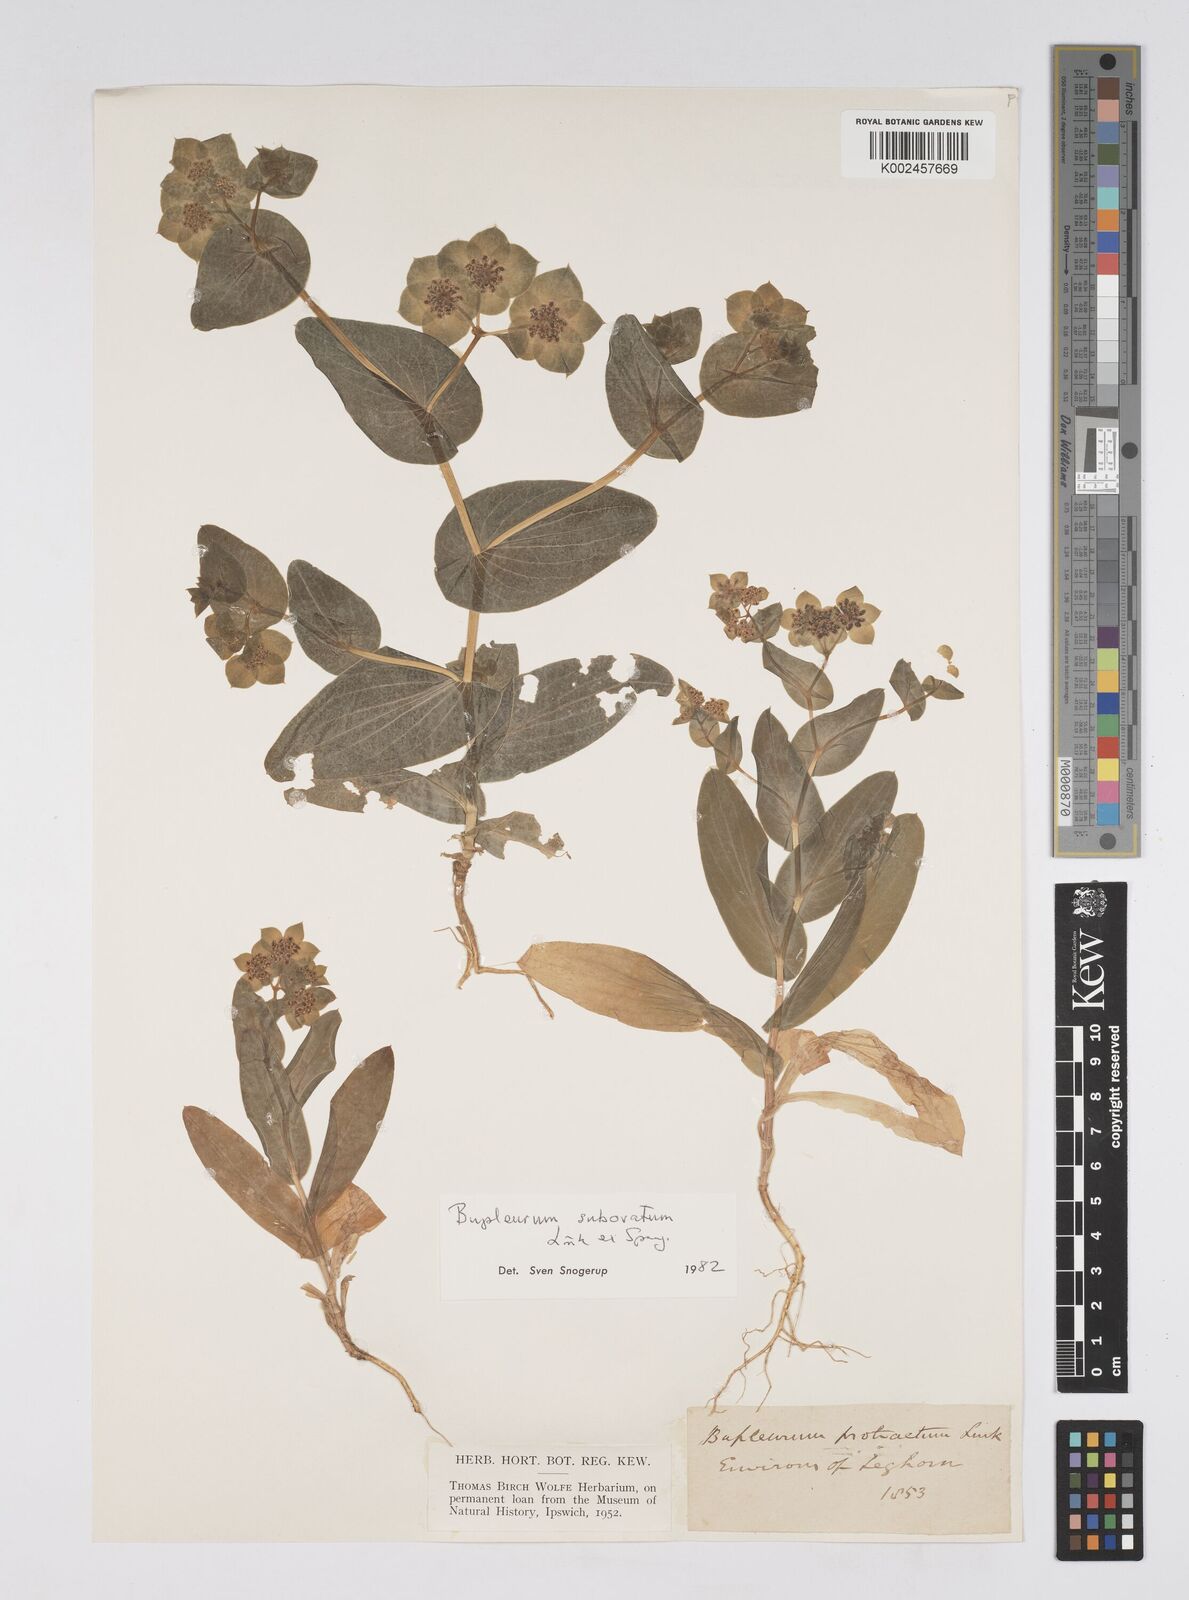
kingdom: Plantae
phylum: Tracheophyta
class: Magnoliopsida
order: Apiales
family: Apiaceae
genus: Bupleurum
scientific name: Bupleurum lancifolium
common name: False thorow-wax
